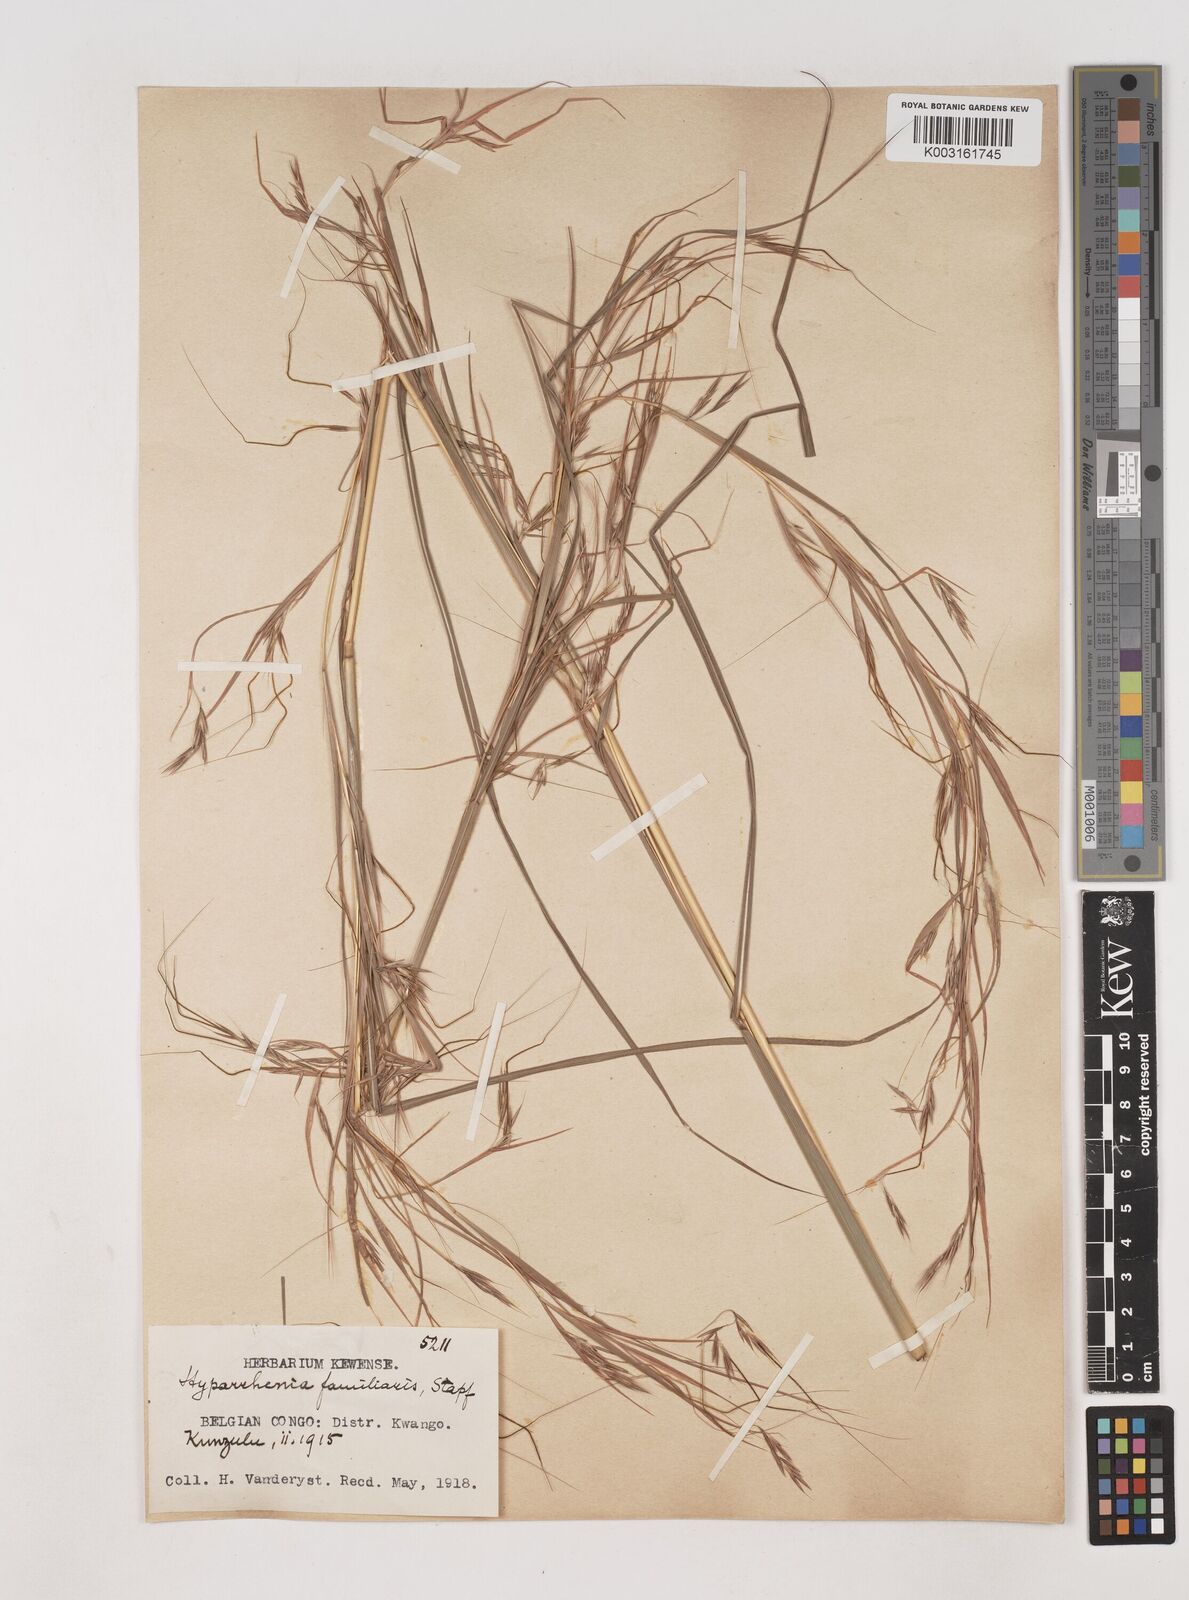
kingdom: Plantae
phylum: Tracheophyta
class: Liliopsida
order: Poales
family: Poaceae
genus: Hyparrhenia
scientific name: Hyparrhenia familiaris
